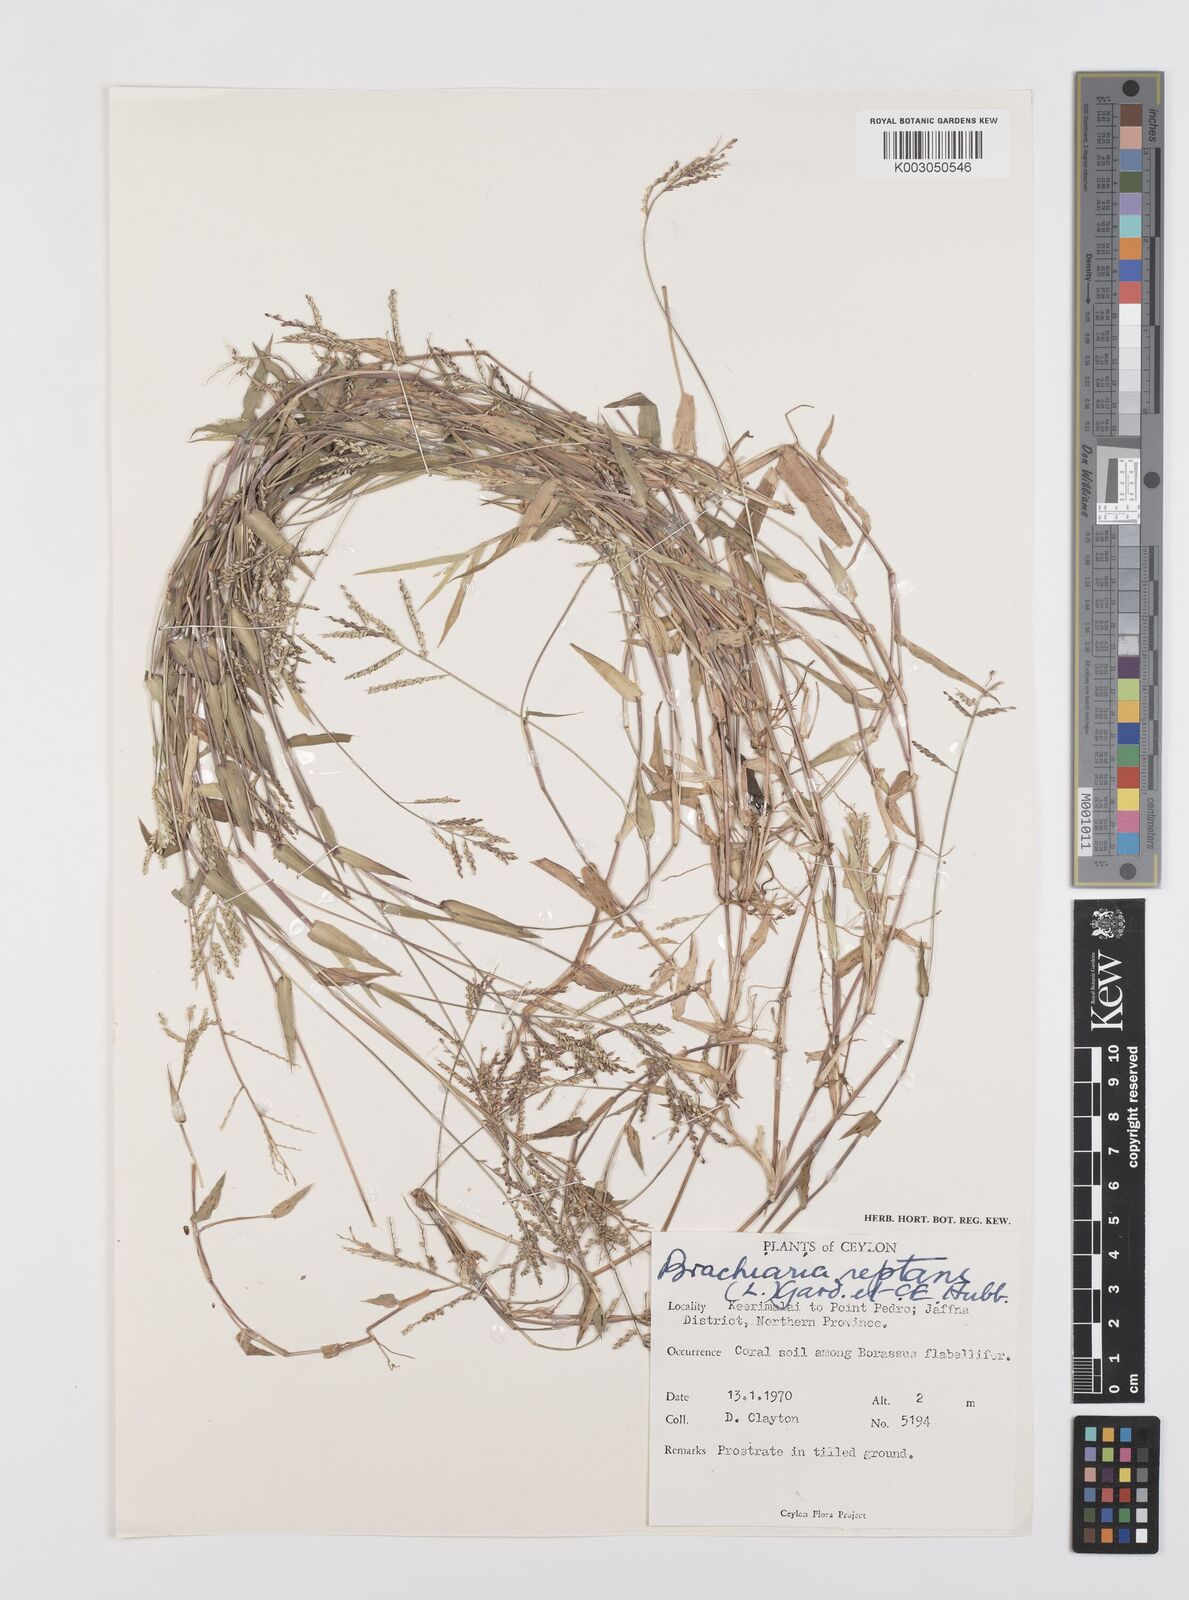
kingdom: Plantae
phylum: Tracheophyta
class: Liliopsida
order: Poales
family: Poaceae
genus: Urochloa
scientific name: Urochloa reptans
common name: Sprawling signalgrass
